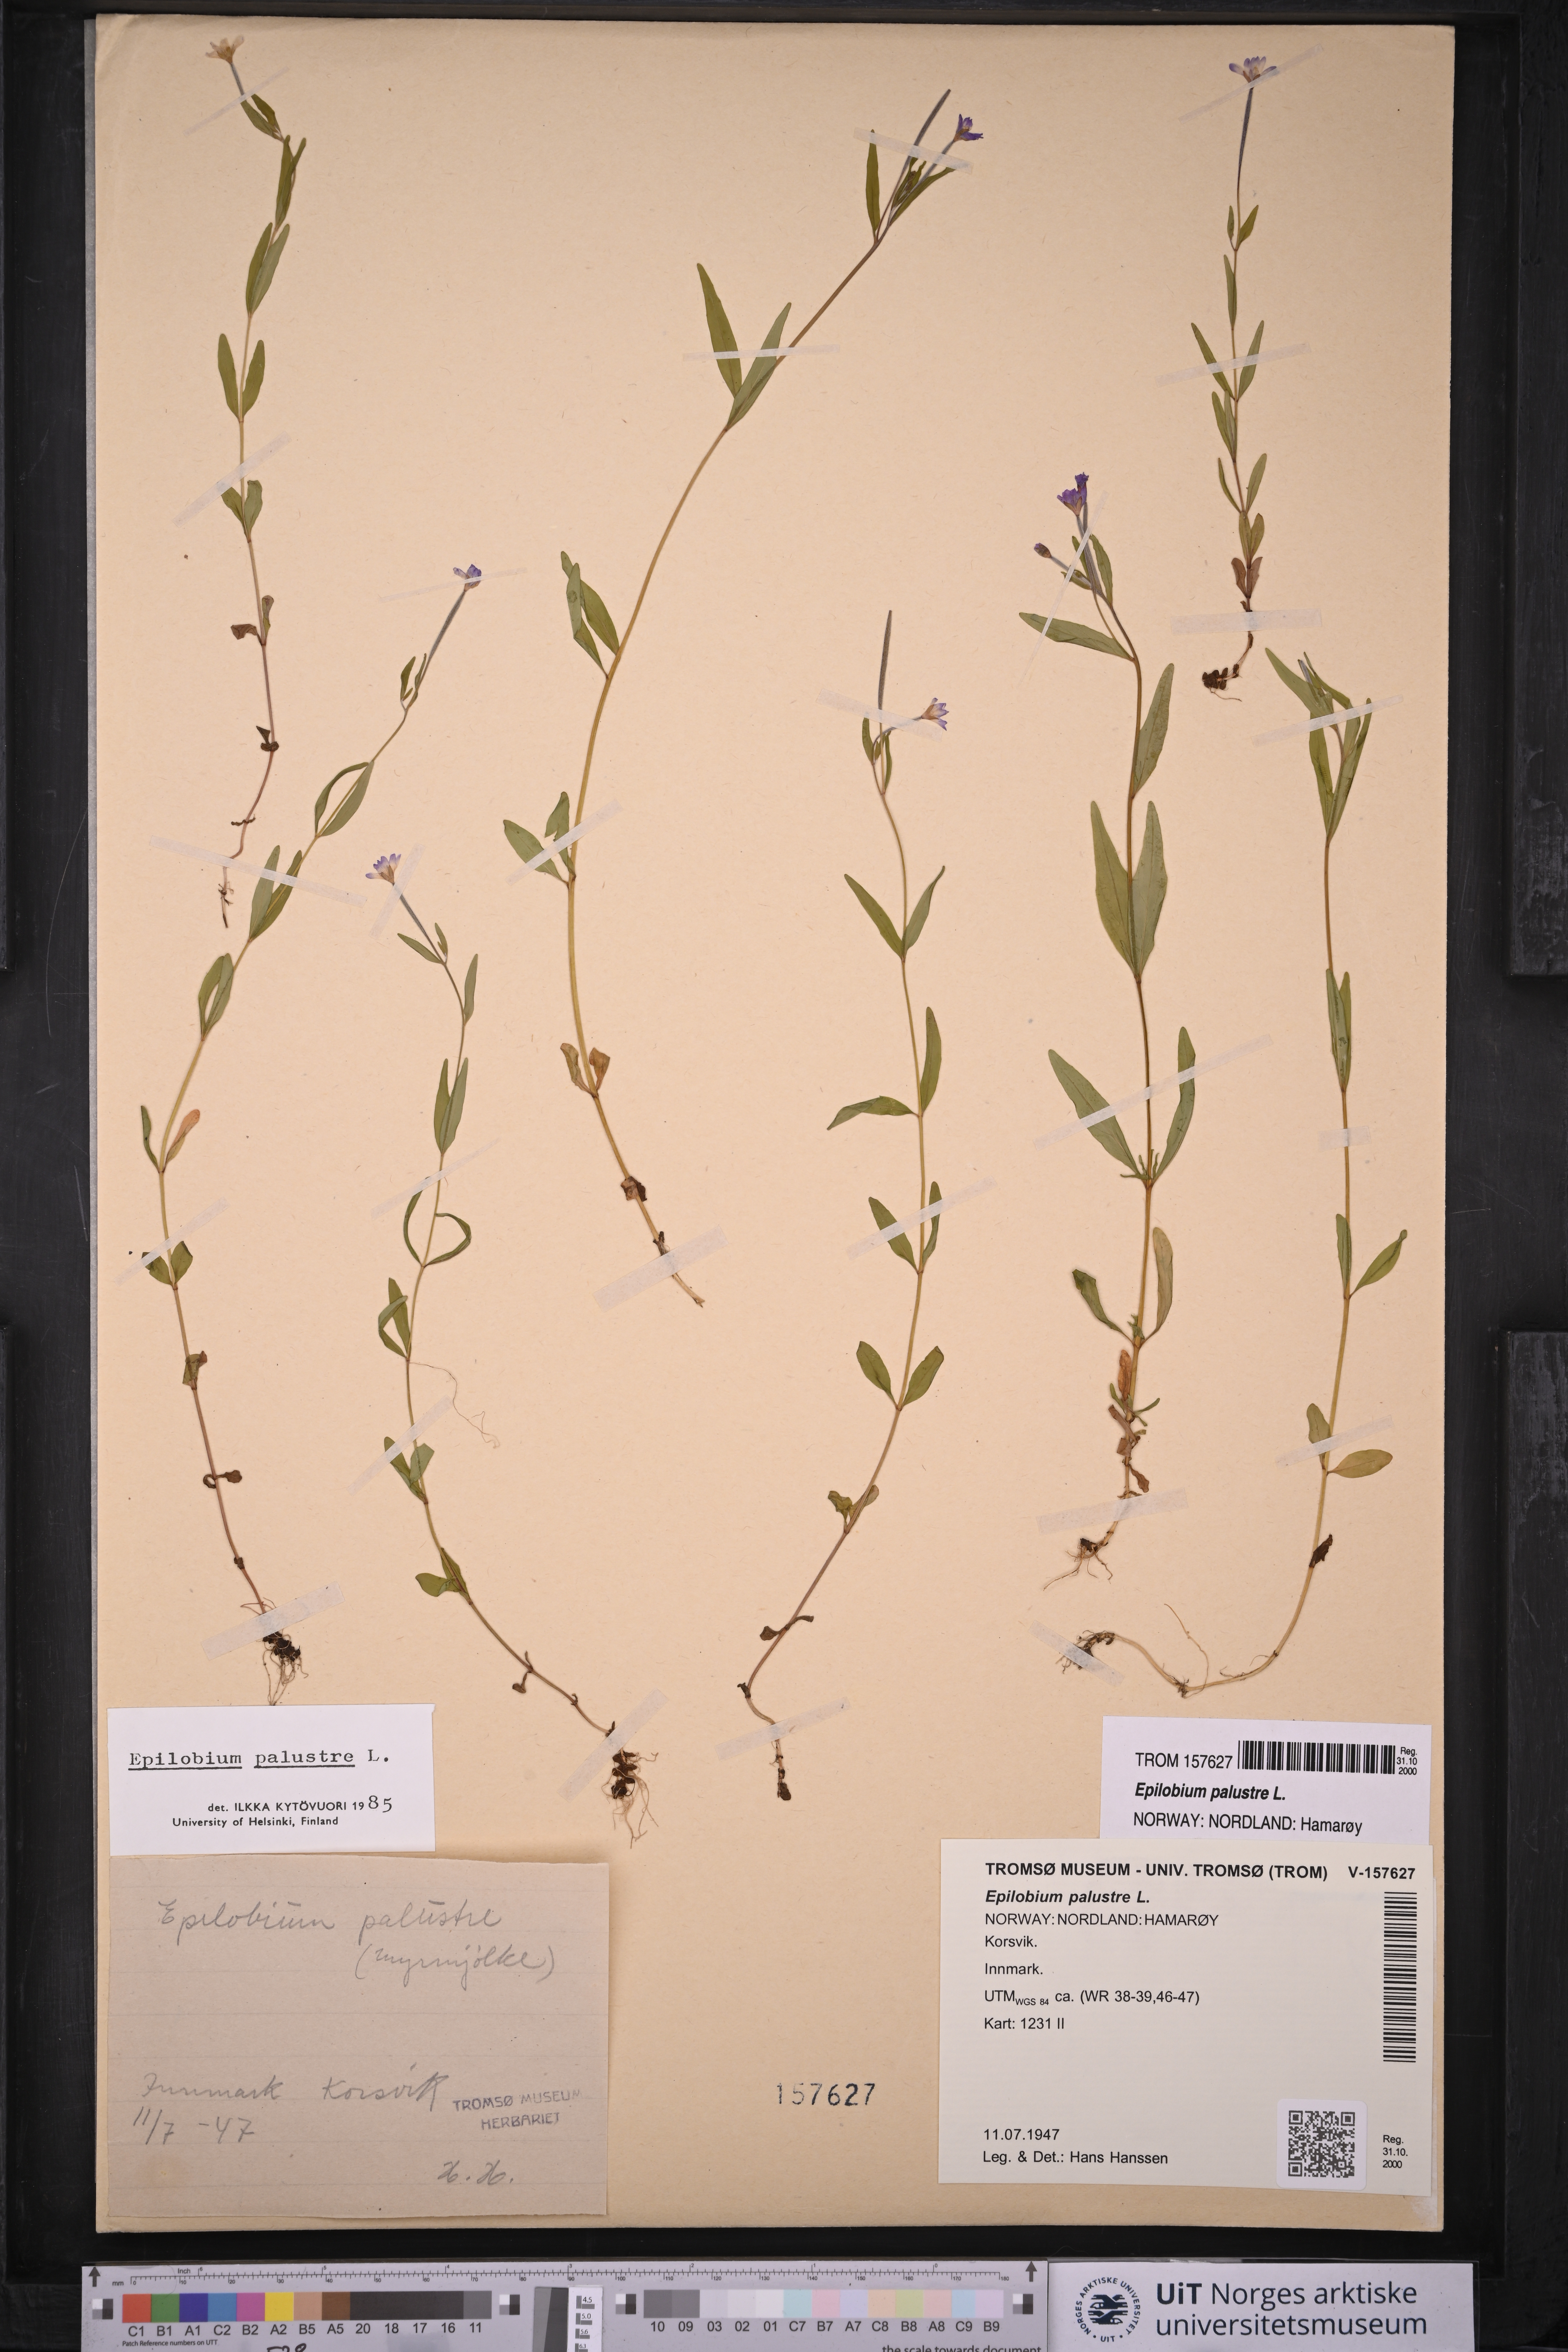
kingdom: Plantae
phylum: Tracheophyta
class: Magnoliopsida
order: Myrtales
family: Onagraceae
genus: Epilobium
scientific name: Epilobium palustre
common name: Marsh willowherb
